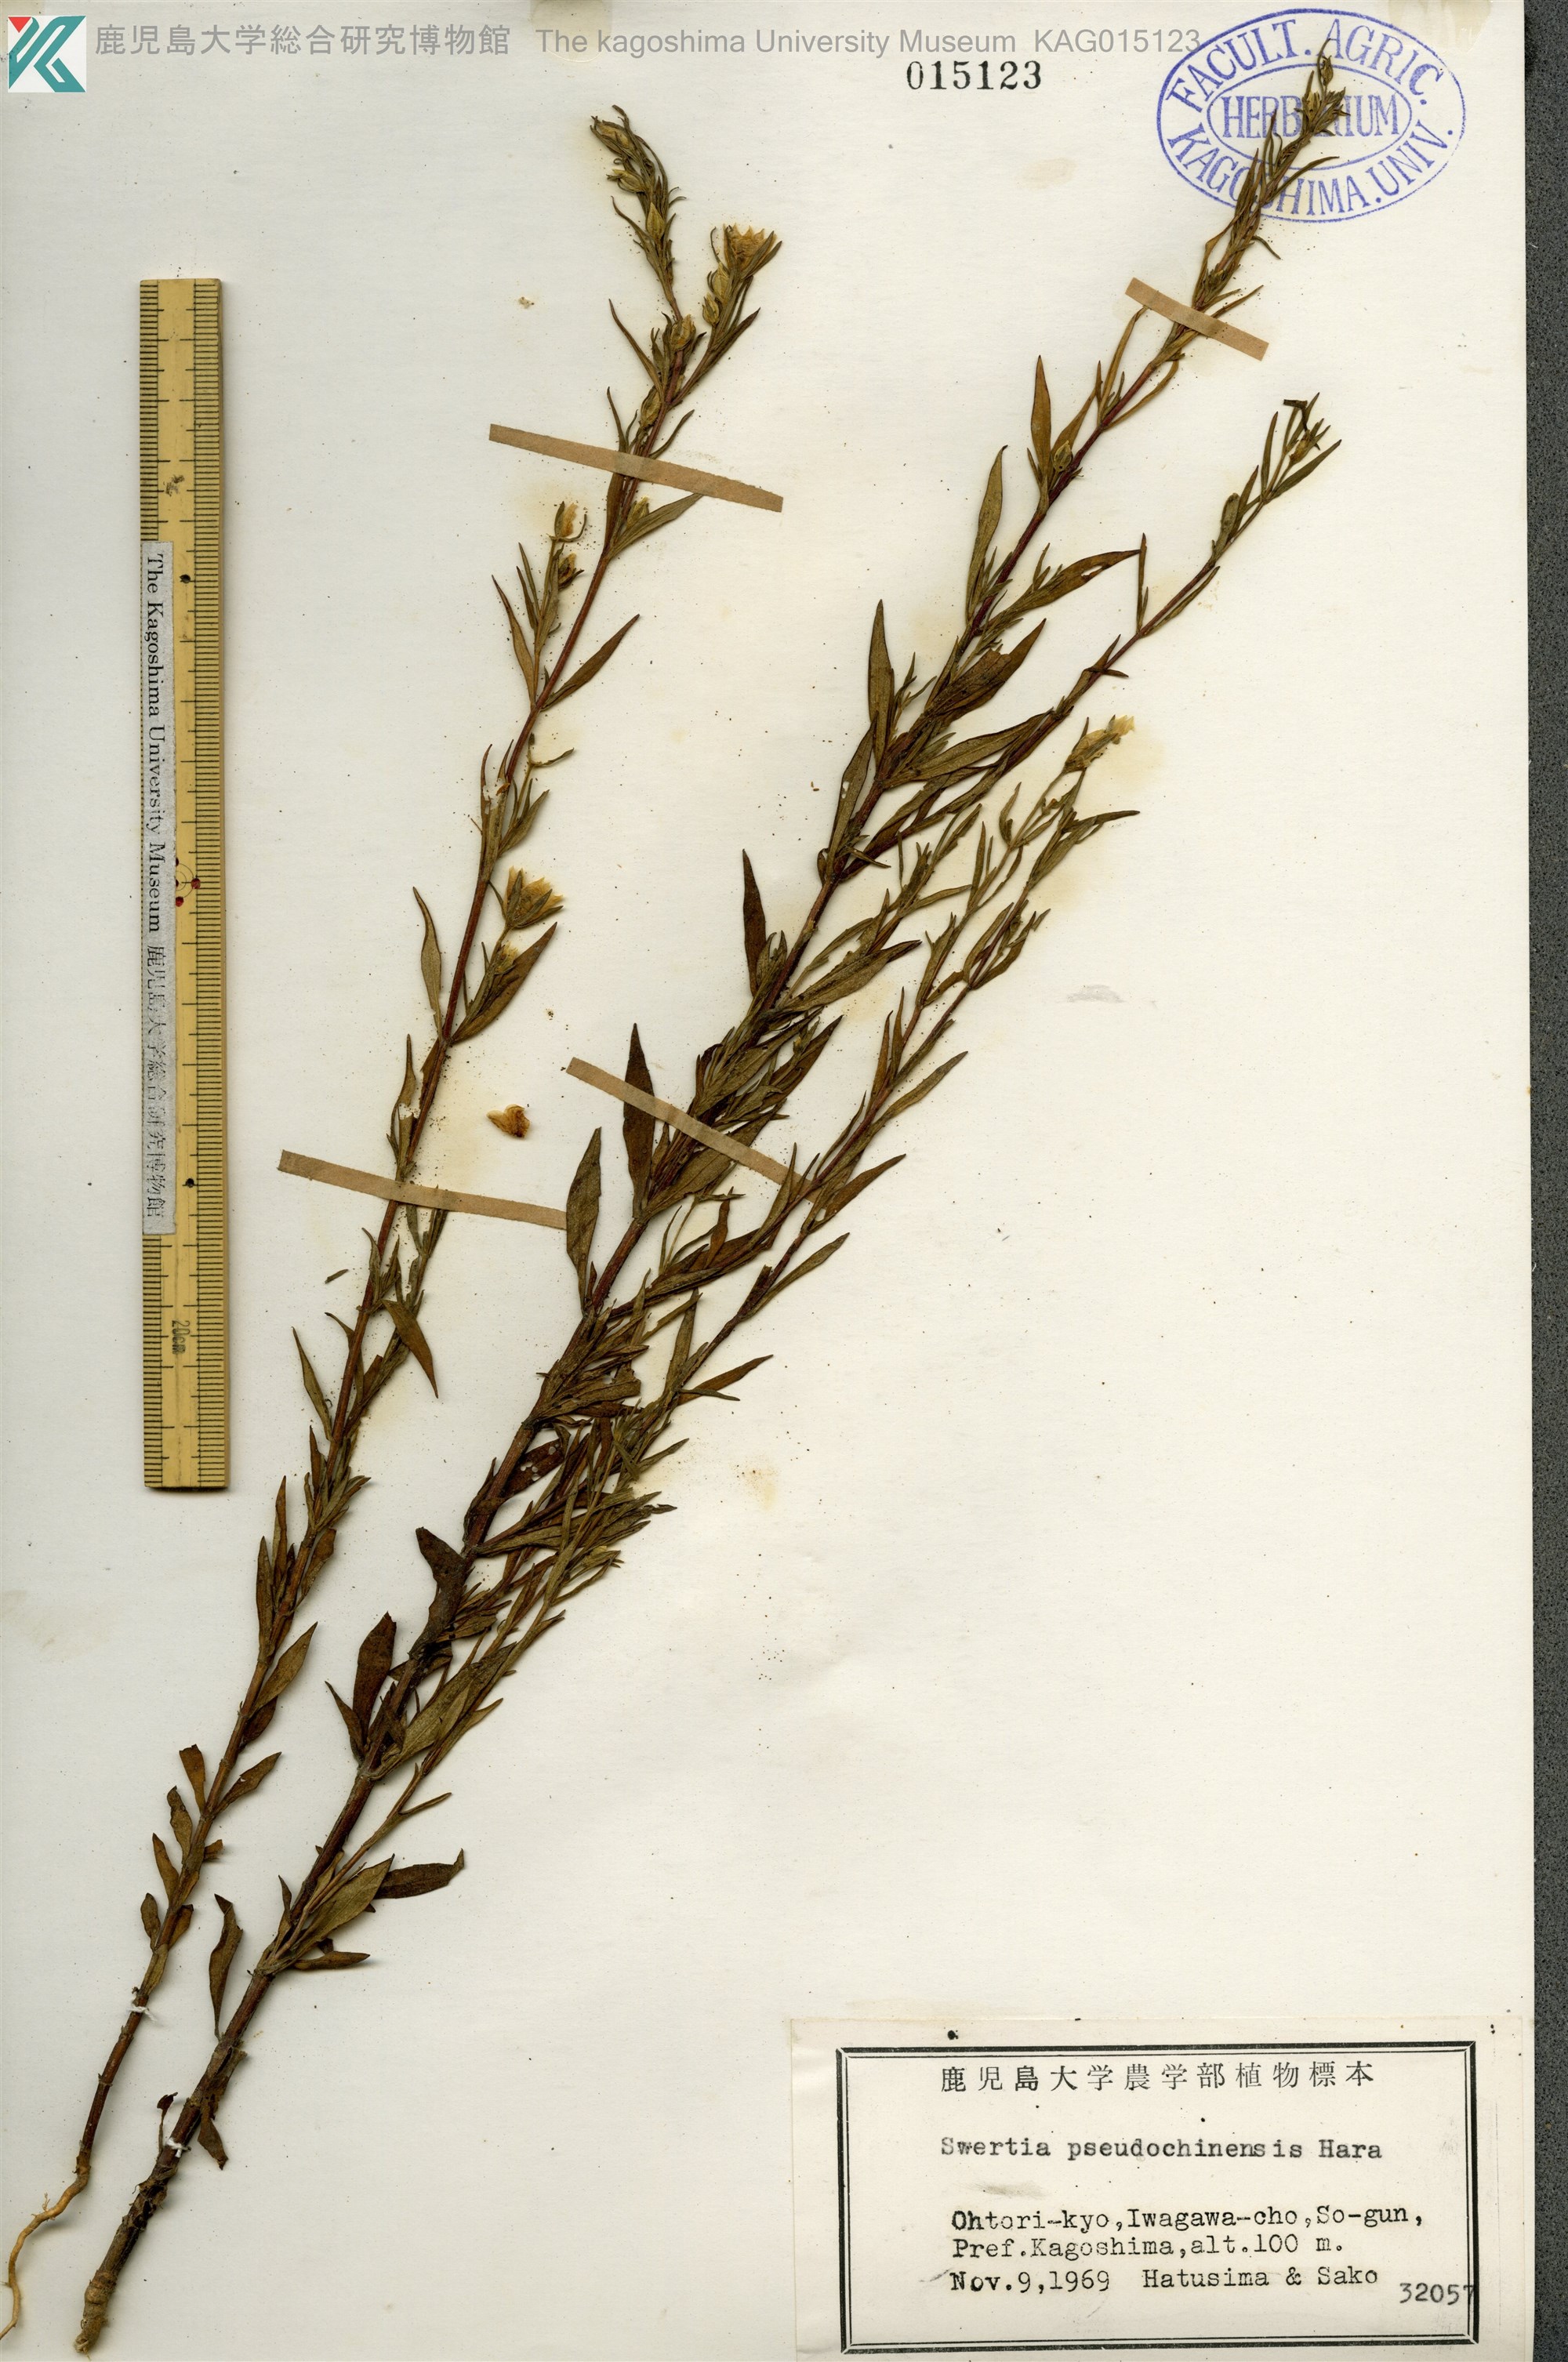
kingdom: Plantae
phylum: Tracheophyta
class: Magnoliopsida
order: Gentianales
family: Gentianaceae
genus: Swertia
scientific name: Swertia pseudochinensis
